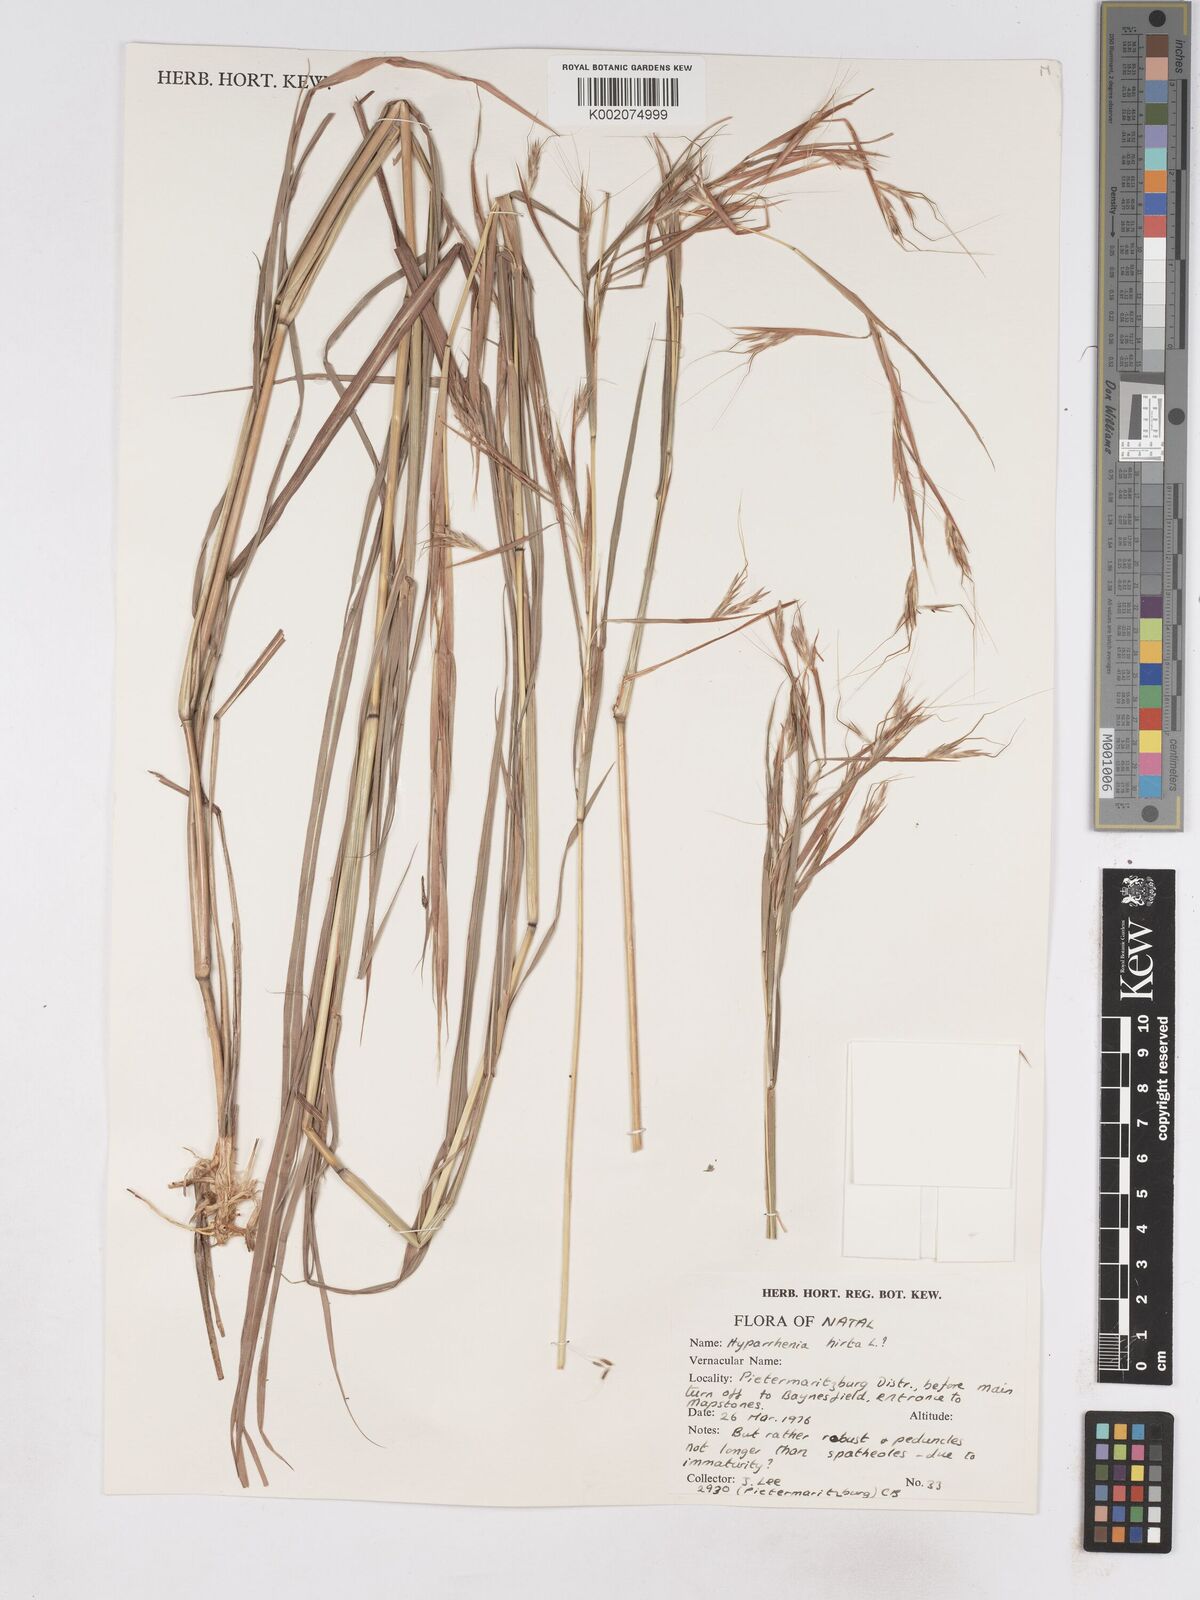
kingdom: Plantae
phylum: Tracheophyta
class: Liliopsida
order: Poales
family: Poaceae
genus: Hyparrhenia
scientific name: Hyparrhenia
